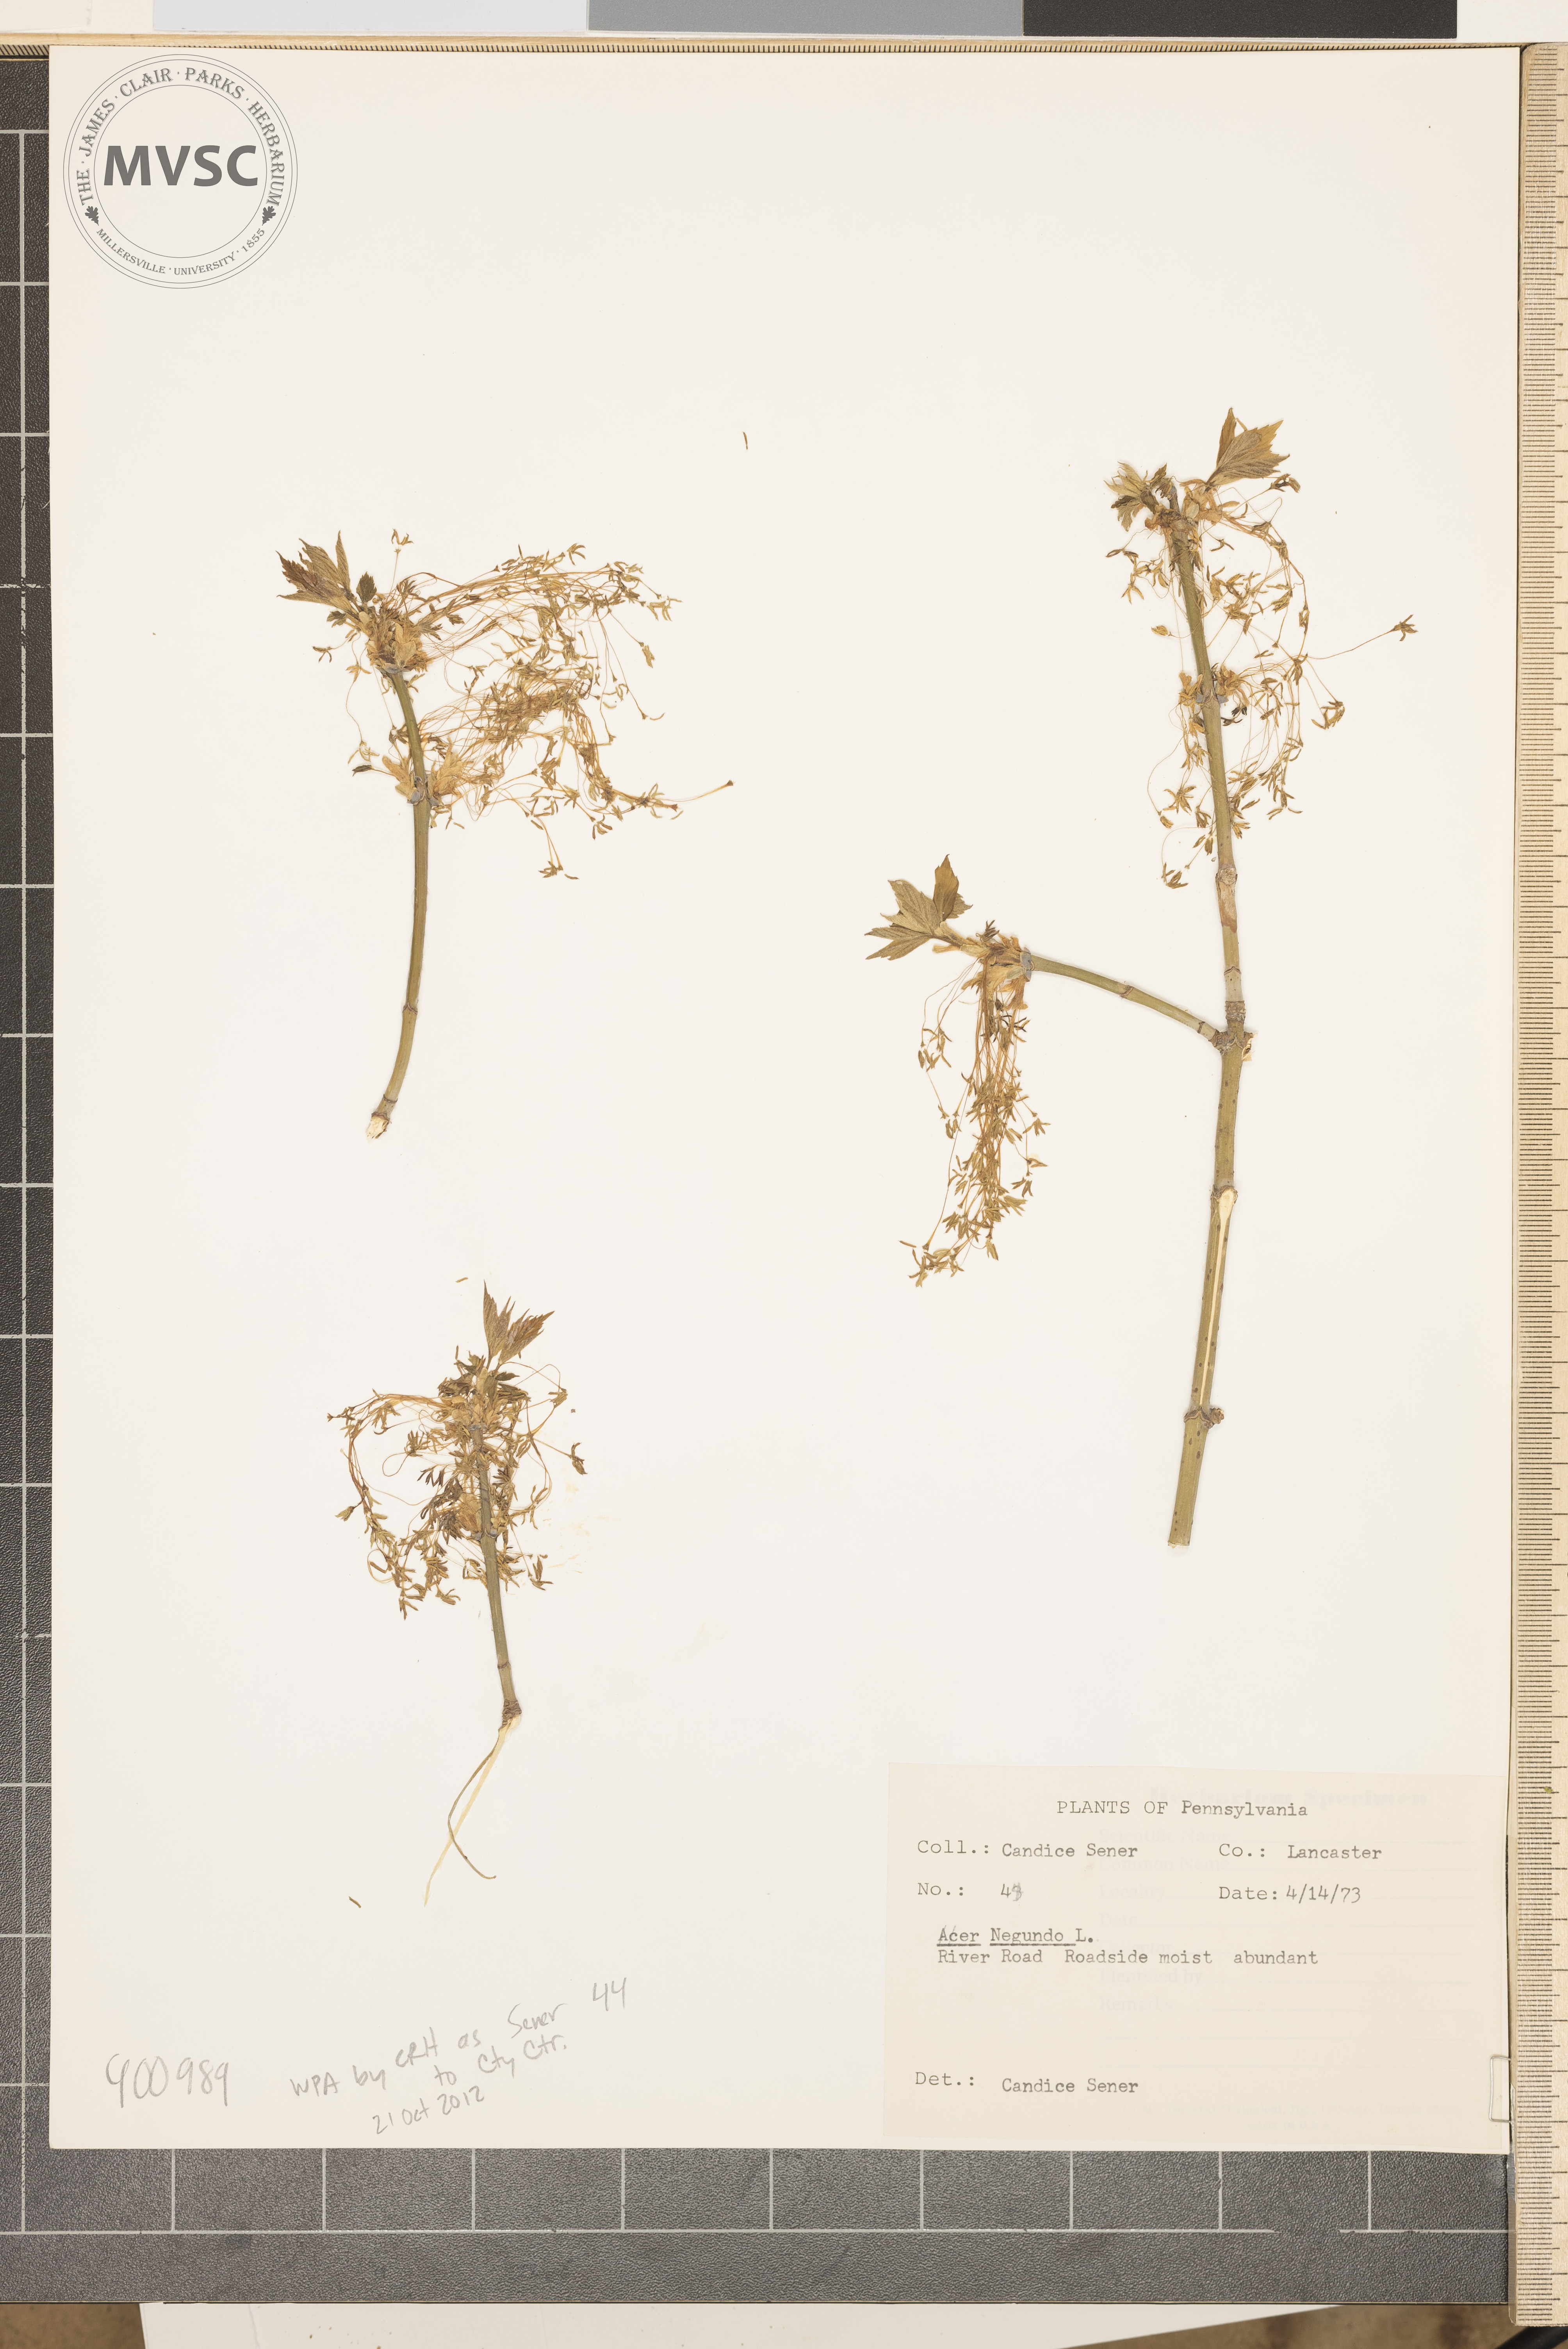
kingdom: Plantae
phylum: Tracheophyta
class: Magnoliopsida
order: Sapindales
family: Sapindaceae
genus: Acer
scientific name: Acer negundo
